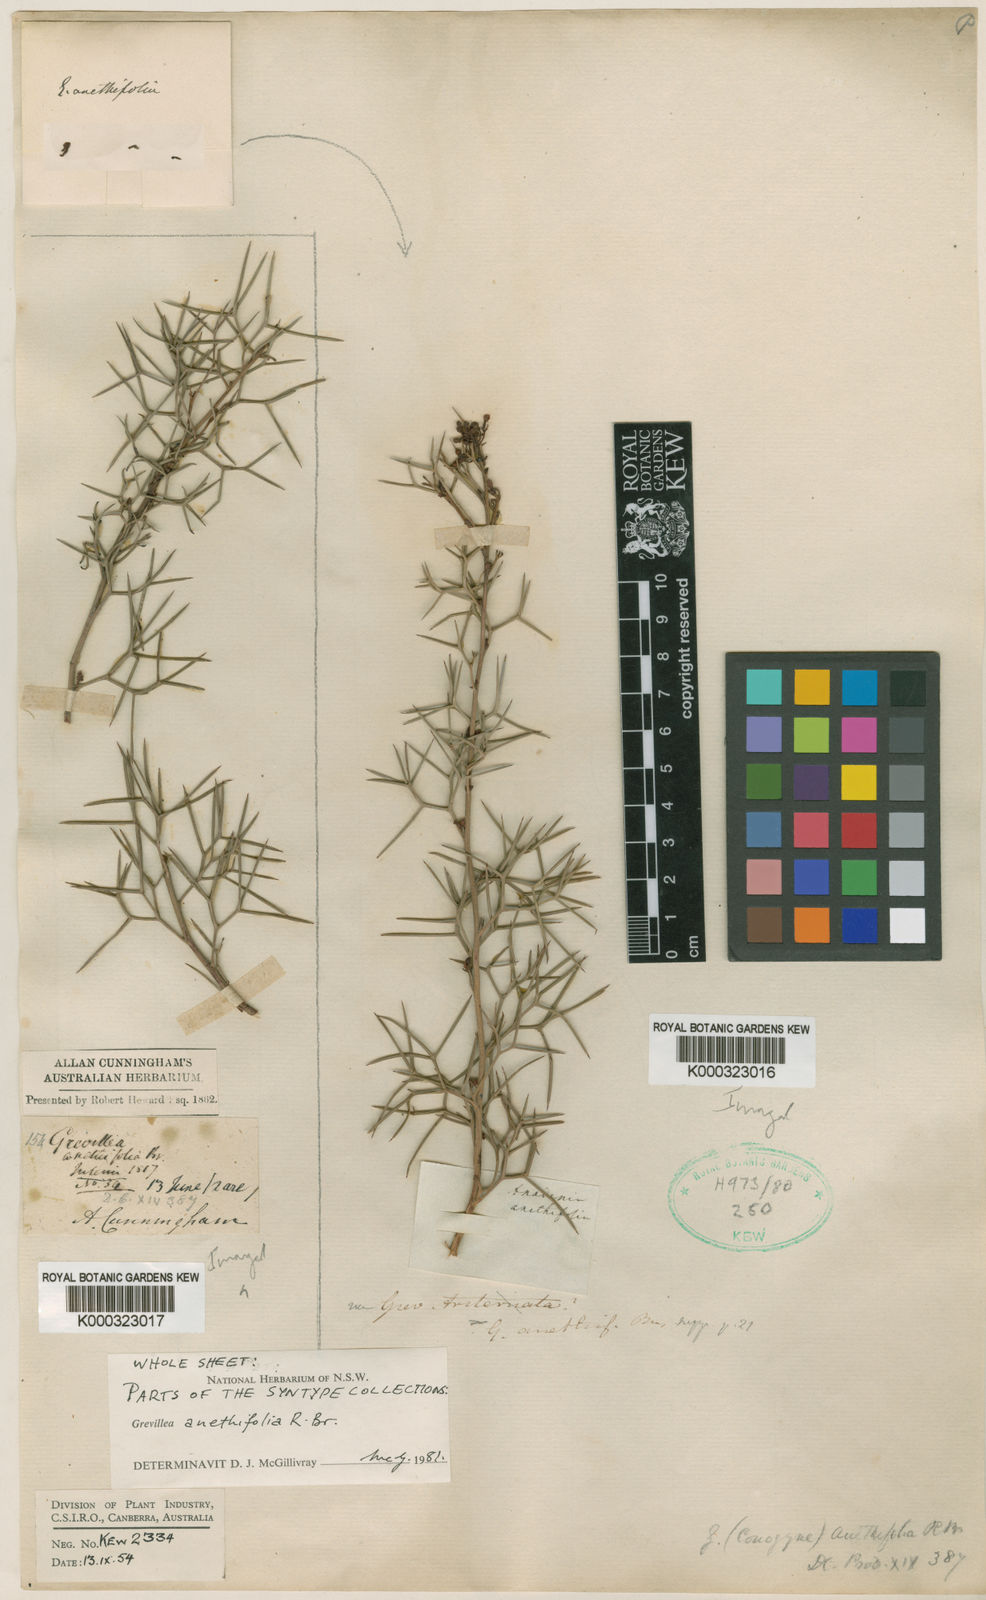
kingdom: Plantae
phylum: Tracheophyta
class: Magnoliopsida
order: Proteales
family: Proteaceae
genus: Grevillea
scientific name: Grevillea anethifolia
